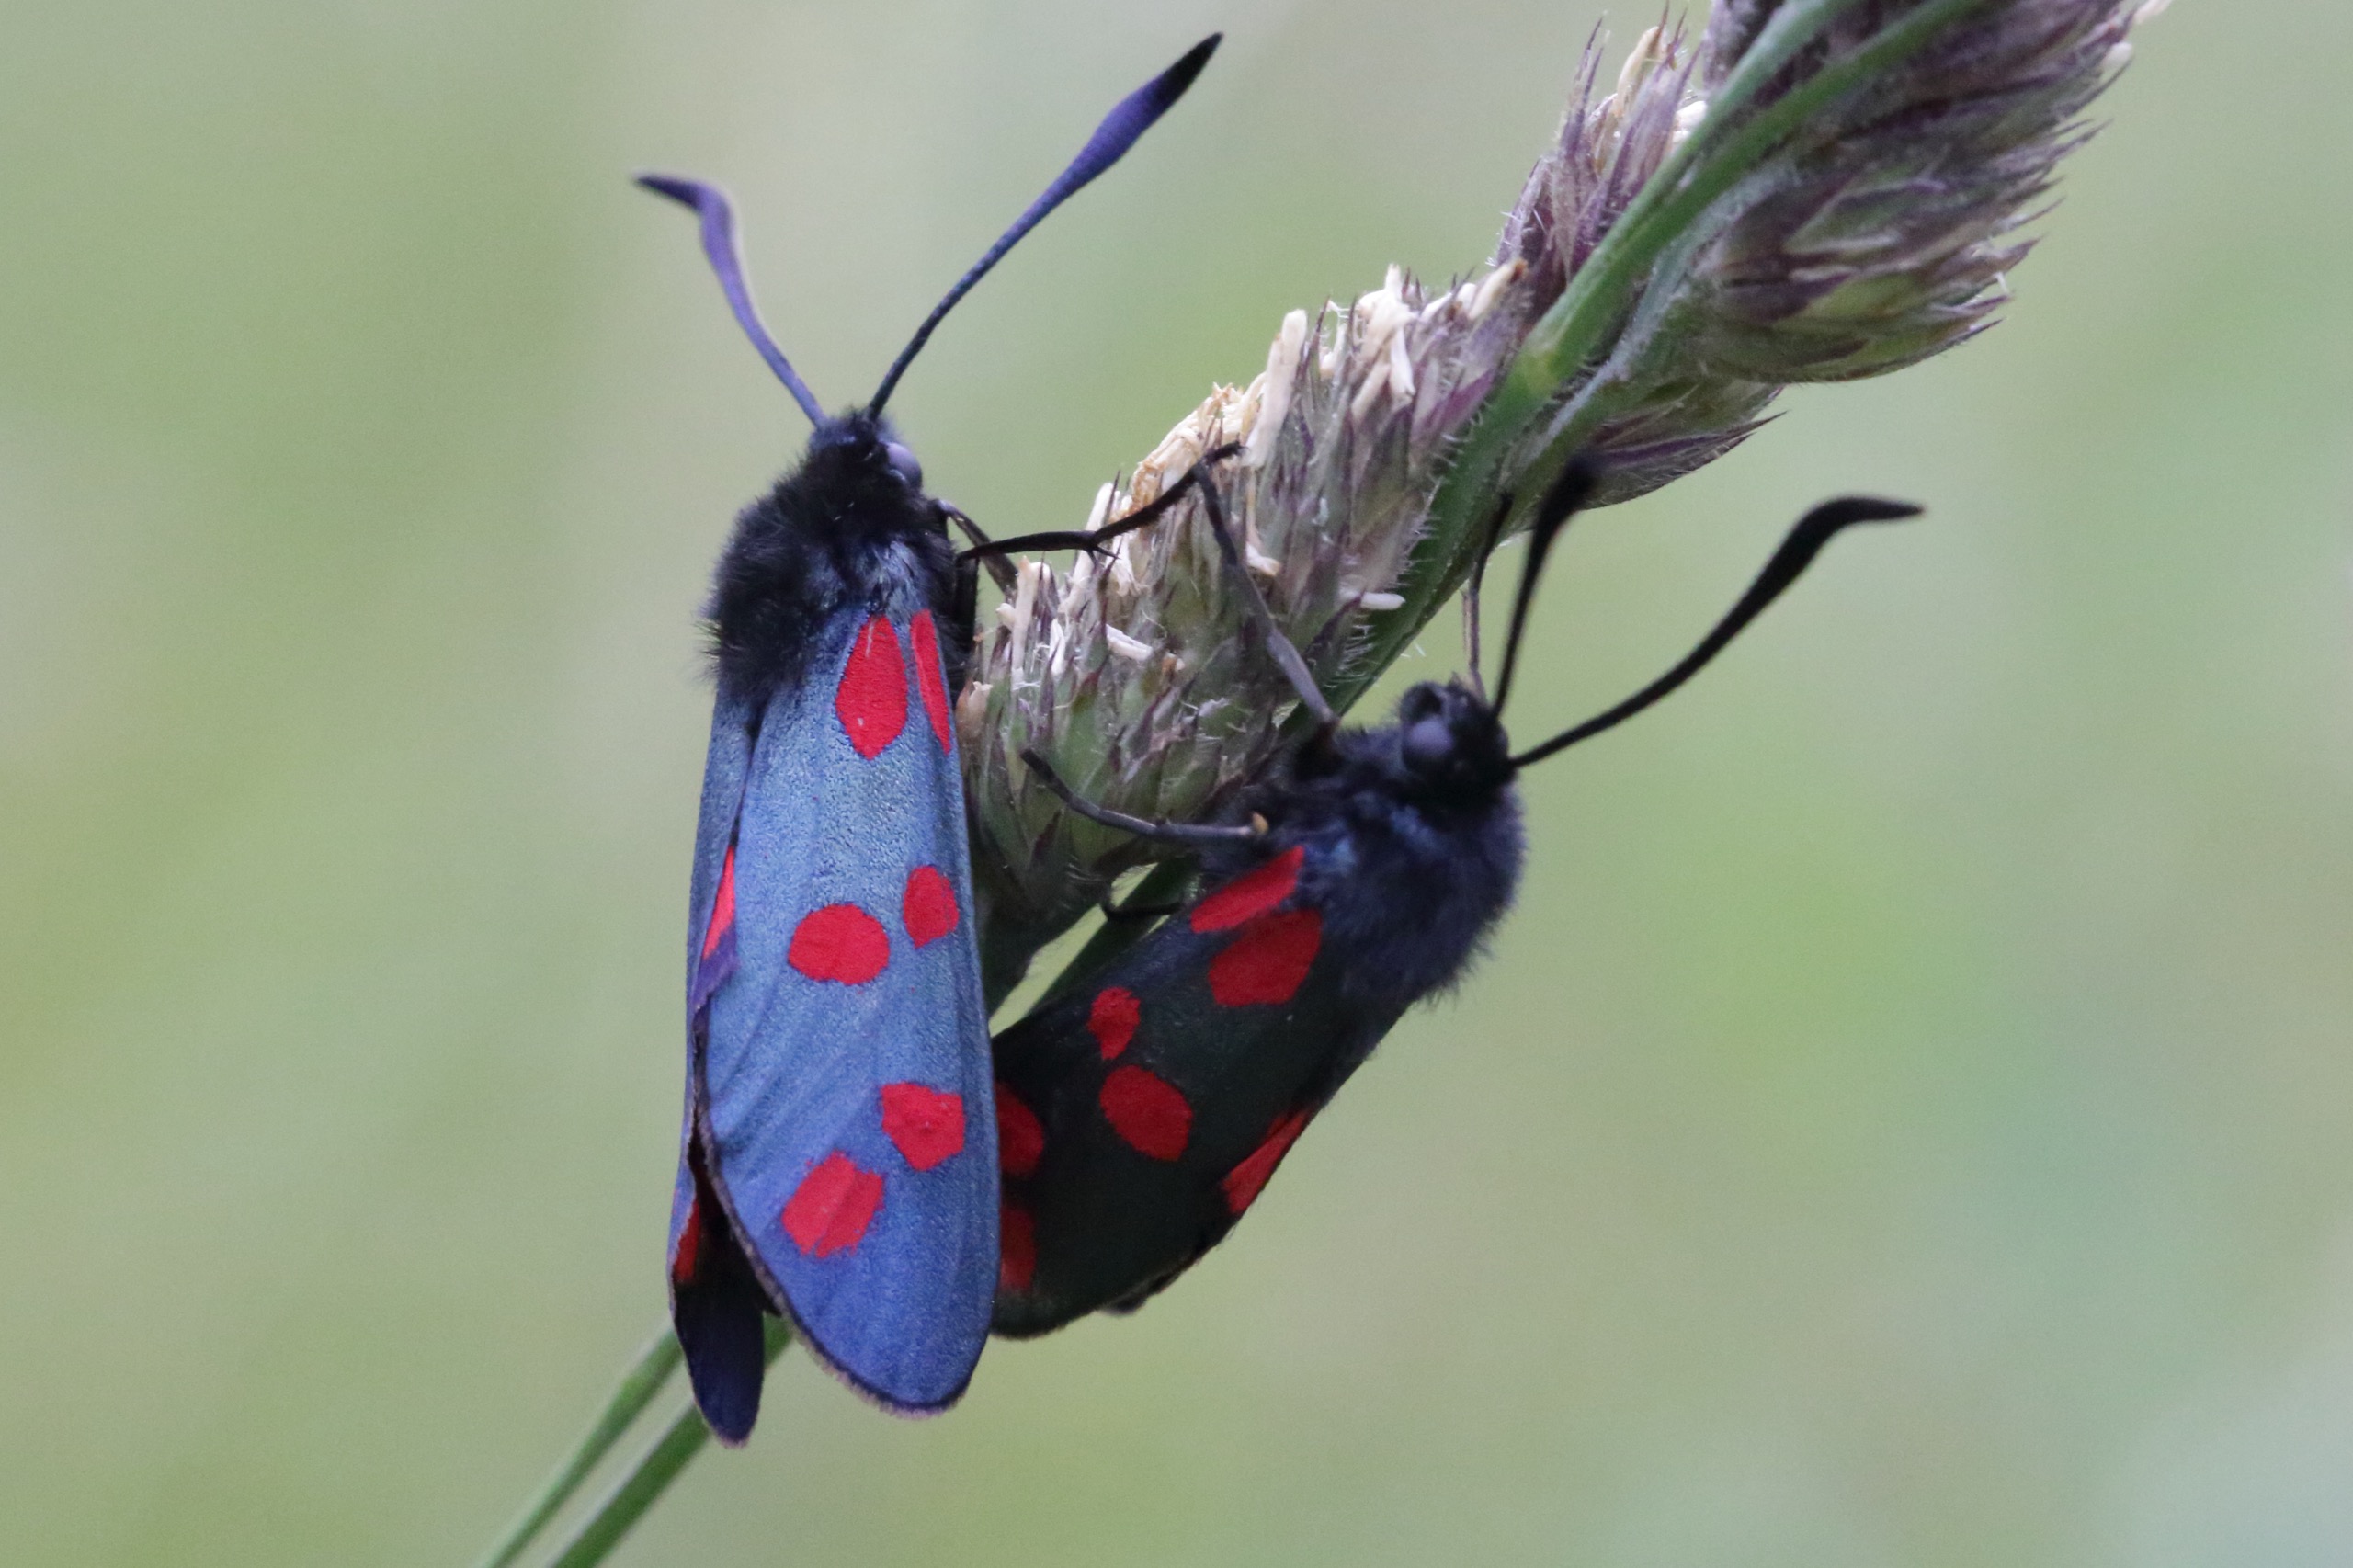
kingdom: Animalia
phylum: Arthropoda
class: Insecta
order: Lepidoptera
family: Zygaenidae
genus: Zygaena
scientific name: Zygaena filipendulae
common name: Seksplettet køllesværmer
